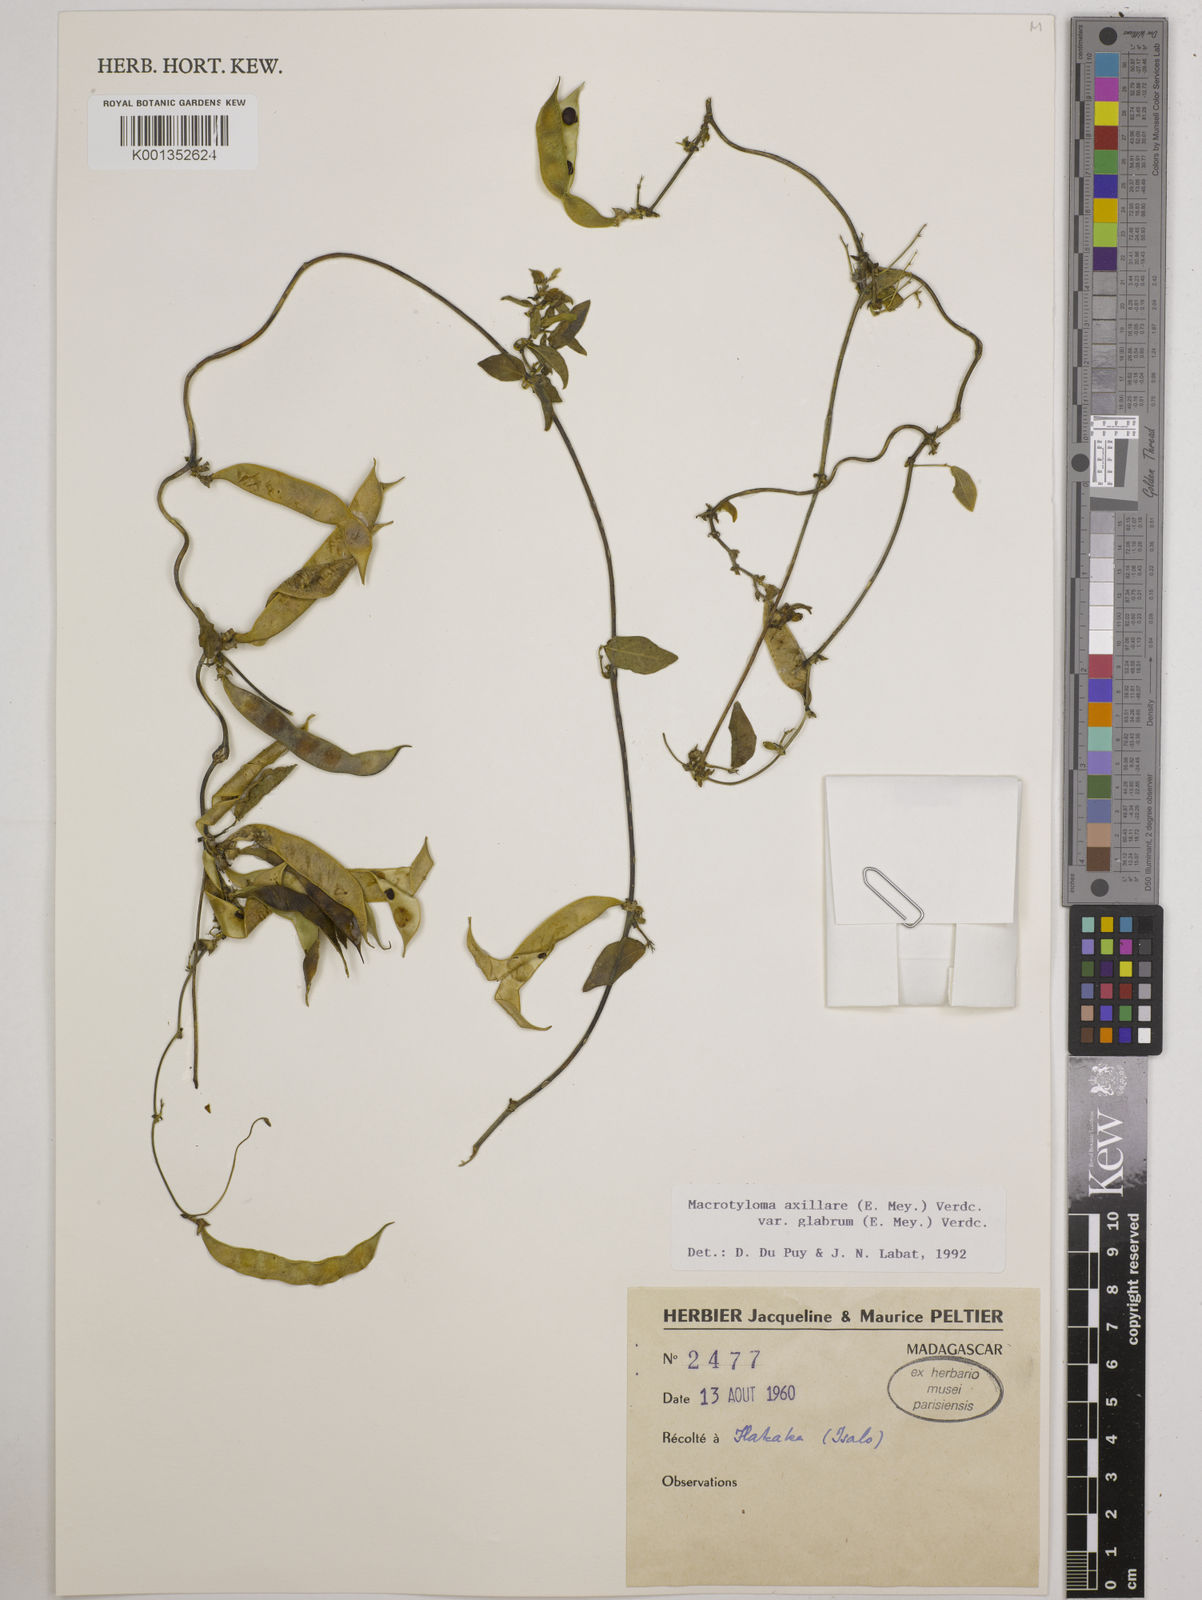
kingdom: Plantae
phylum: Tracheophyta
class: Magnoliopsida
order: Fabales
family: Fabaceae
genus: Macrotyloma
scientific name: Macrotyloma
